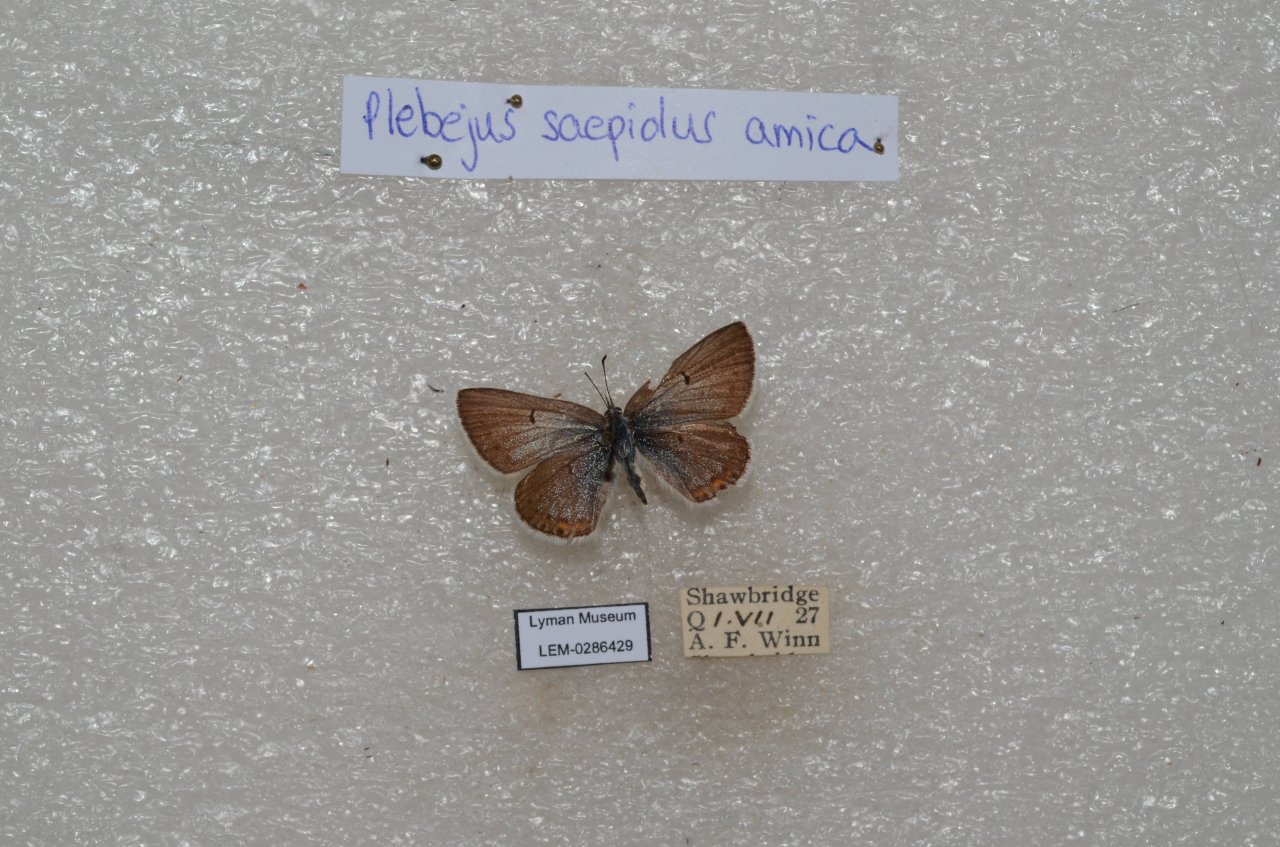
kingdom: Animalia
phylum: Arthropoda
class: Insecta
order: Lepidoptera
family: Lycaenidae
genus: Plebejus
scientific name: Plebejus saepiolus
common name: Greenish Blue
